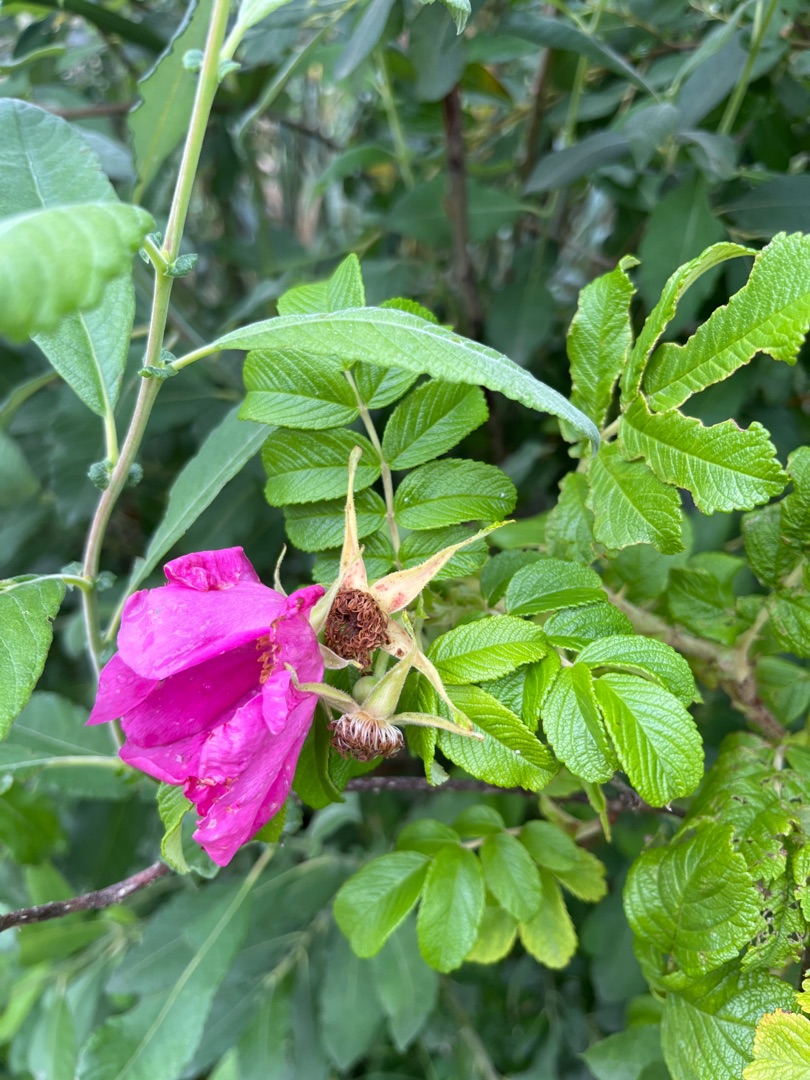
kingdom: Plantae
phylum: Tracheophyta
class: Magnoliopsida
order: Rosales
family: Rosaceae
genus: Rosa
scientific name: Rosa rugosa
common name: Rynket rose
